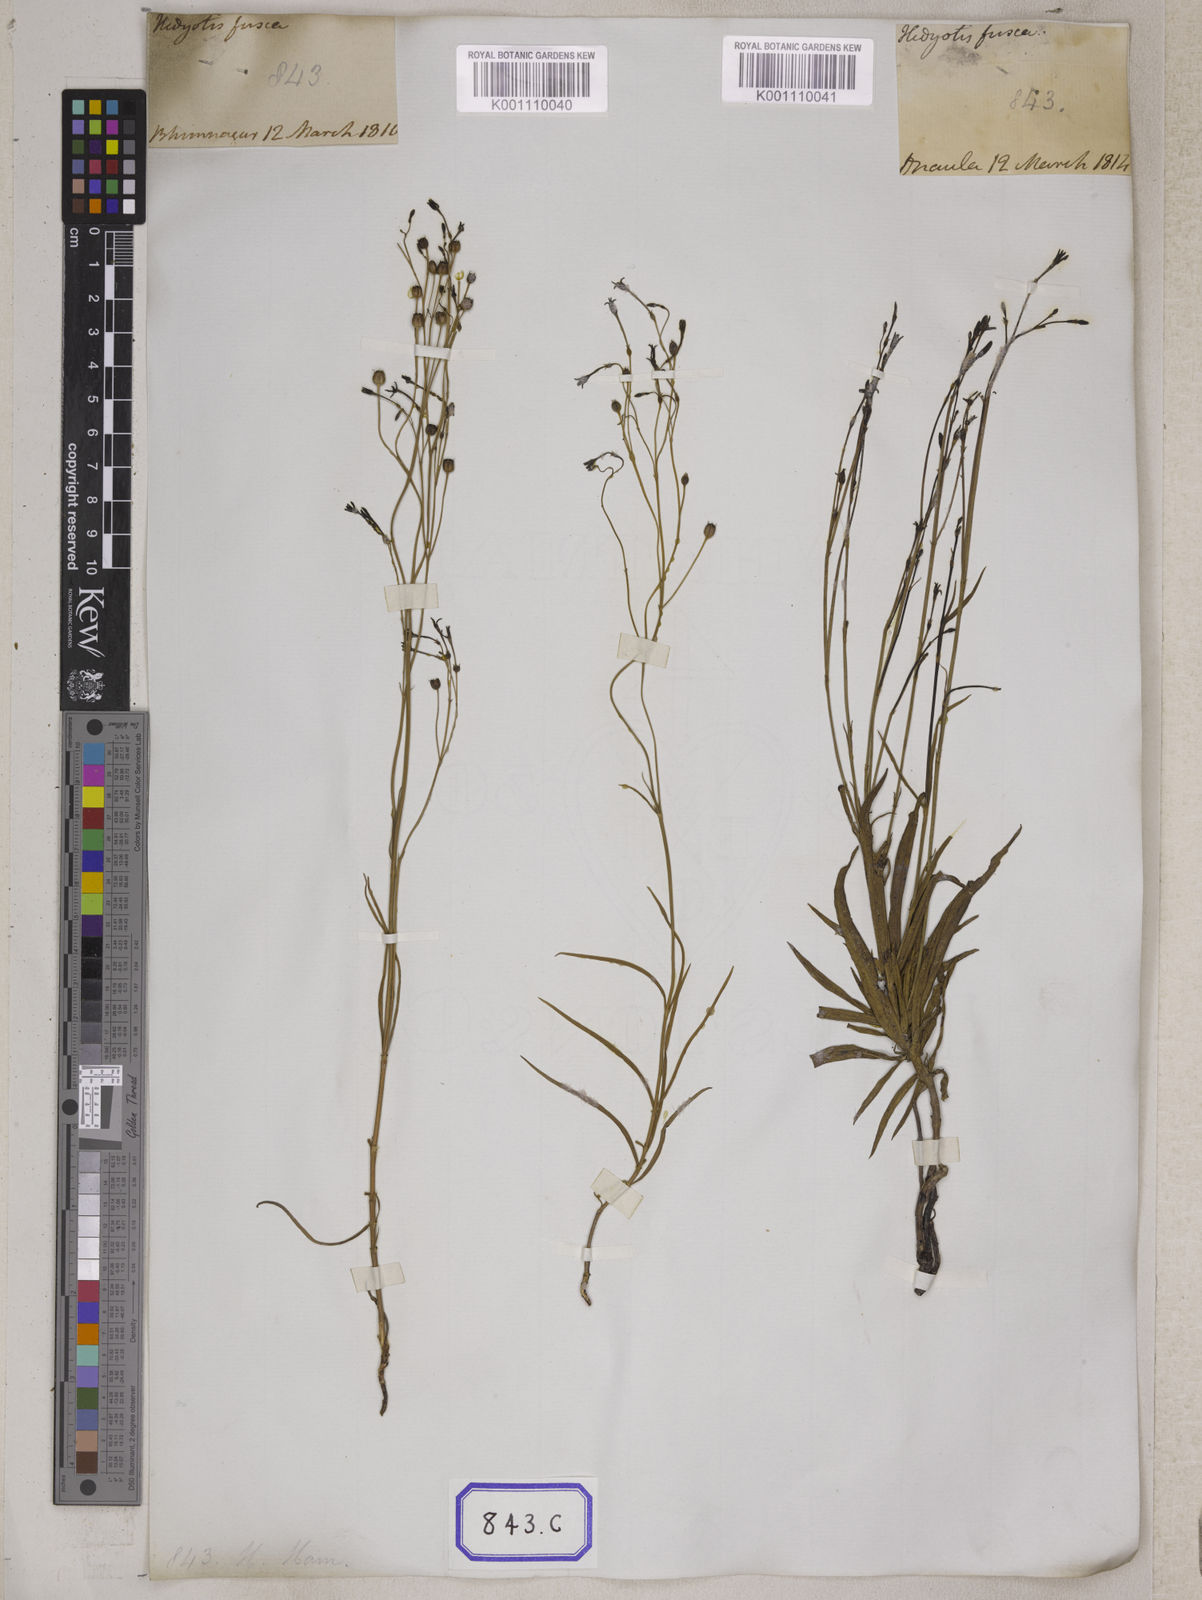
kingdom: Plantae
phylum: Tracheophyta
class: Magnoliopsida
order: Gentianales
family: Rubiaceae
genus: Kohautia
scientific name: Kohautia gracilis
